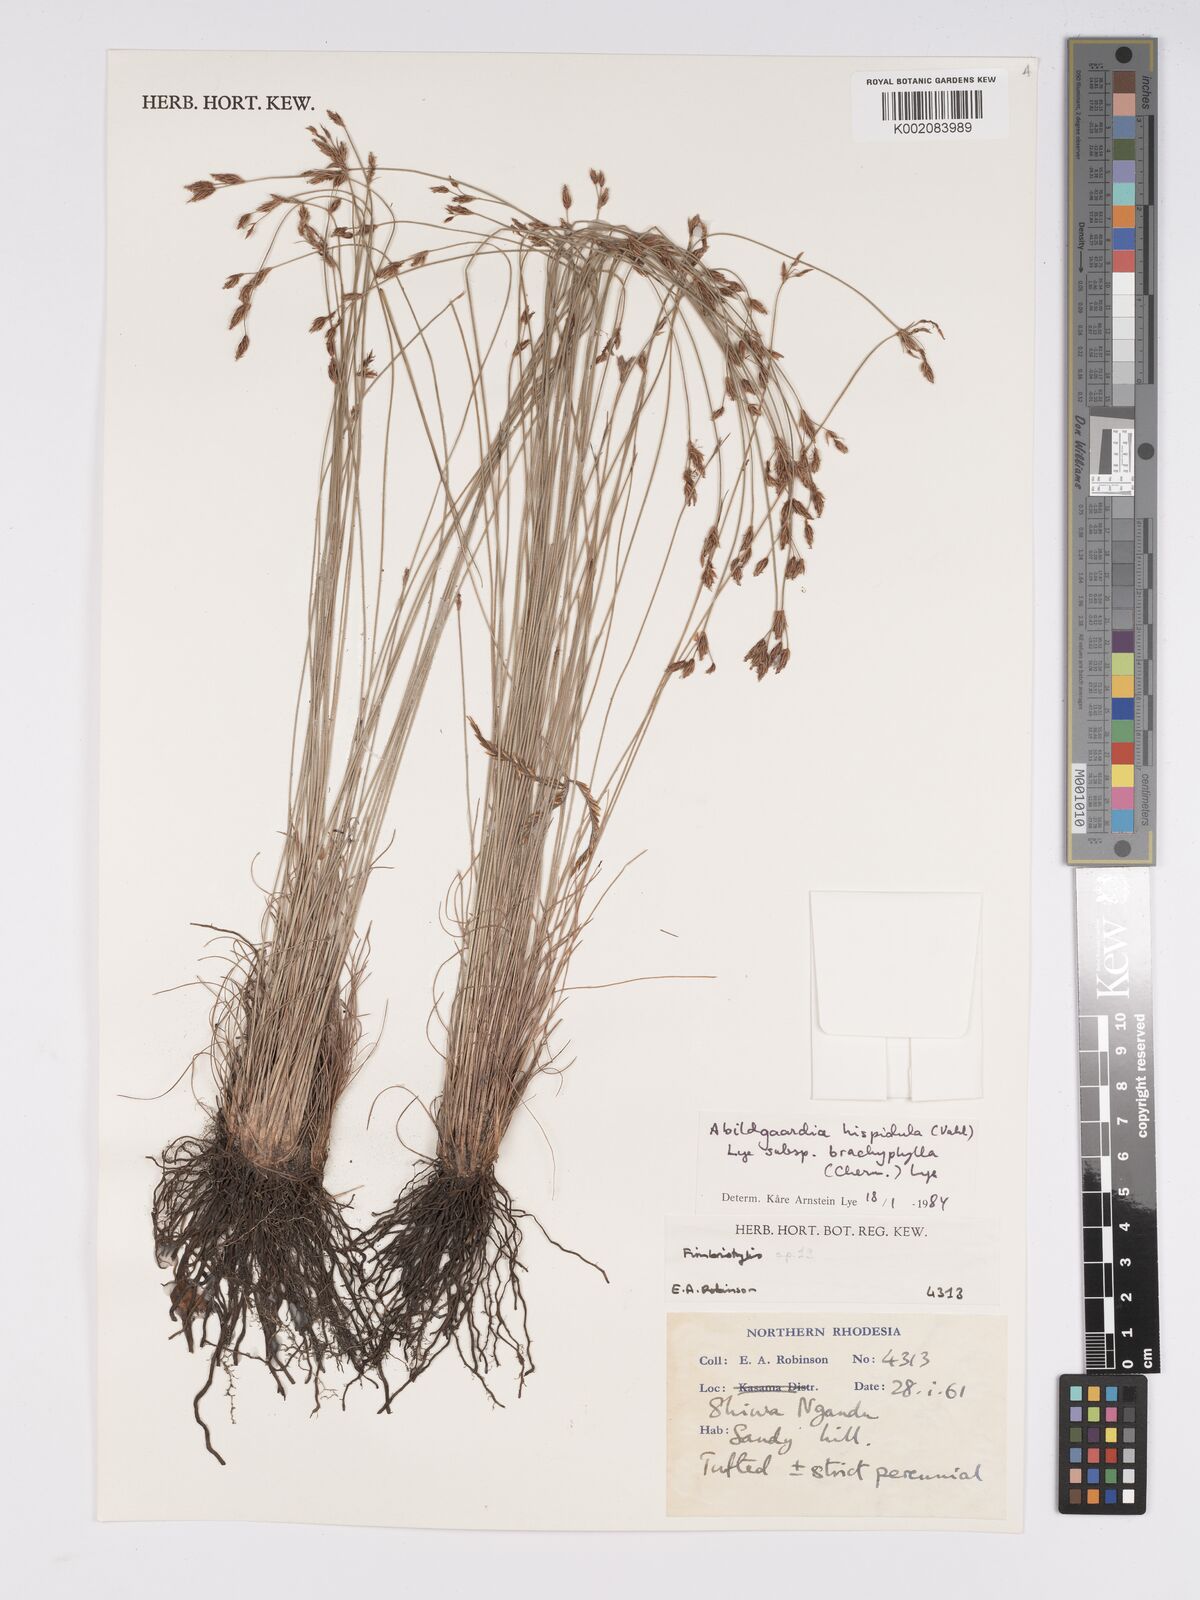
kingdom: Plantae
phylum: Tracheophyta
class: Liliopsida
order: Poales
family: Cyperaceae
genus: Bulbostylis
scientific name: Bulbostylis hispidula
